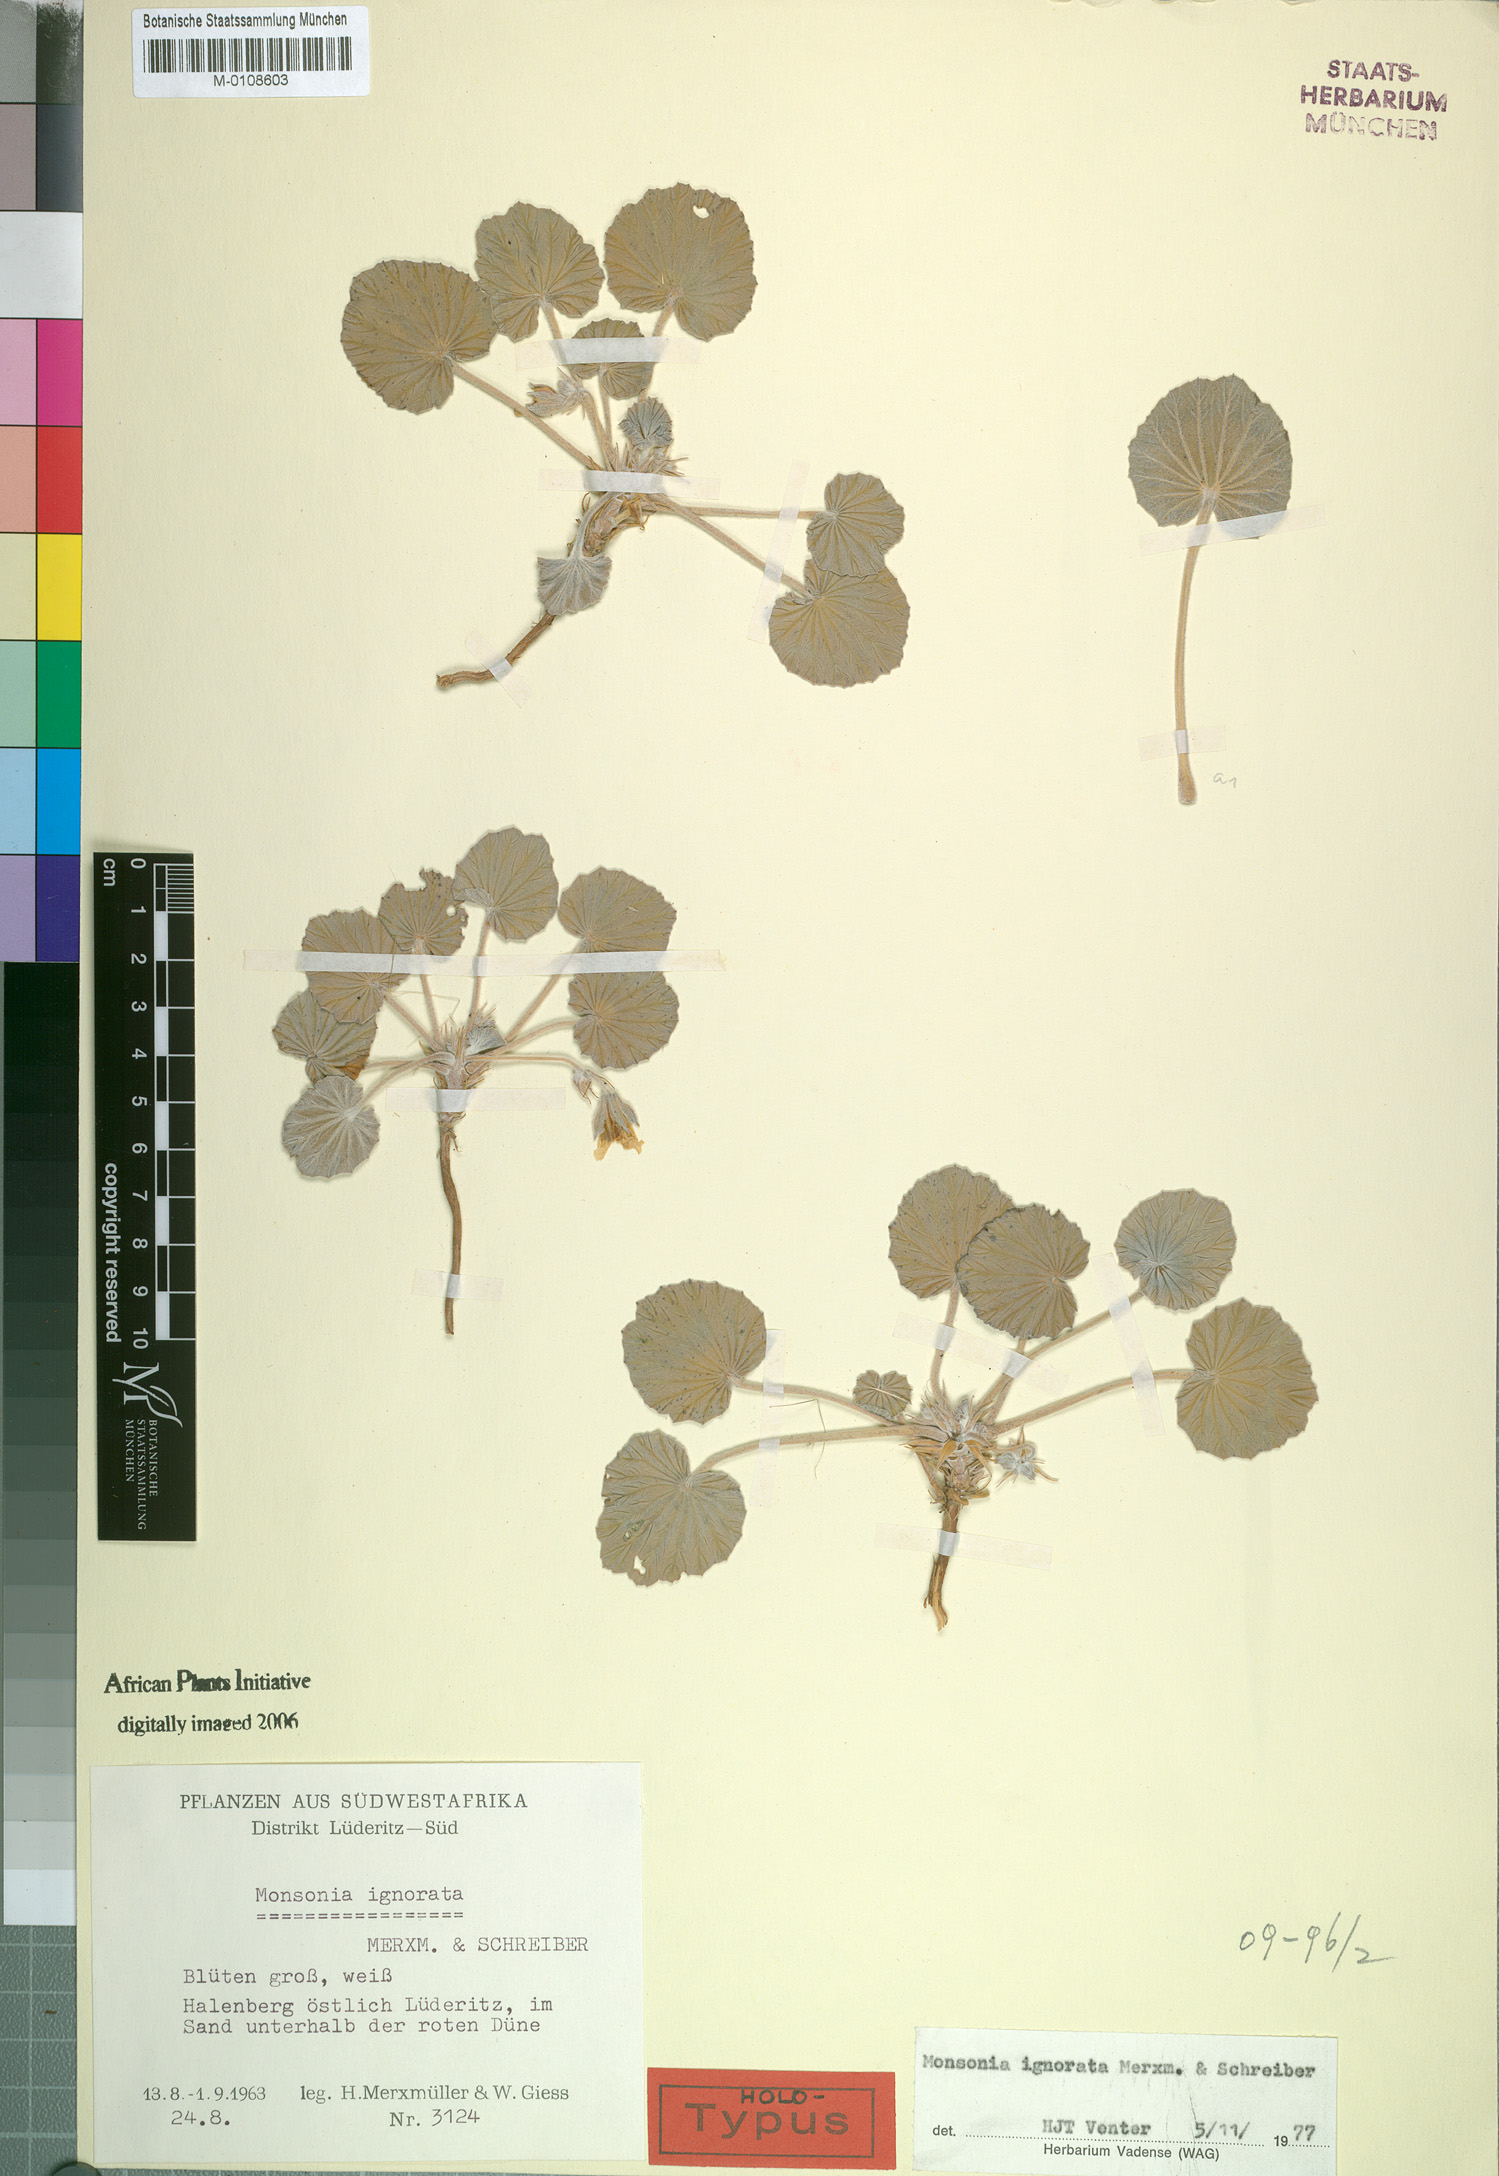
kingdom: Plantae
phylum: Tracheophyta
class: Magnoliopsida
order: Geraniales
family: Geraniaceae
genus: Monsonia
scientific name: Monsonia ignorata
